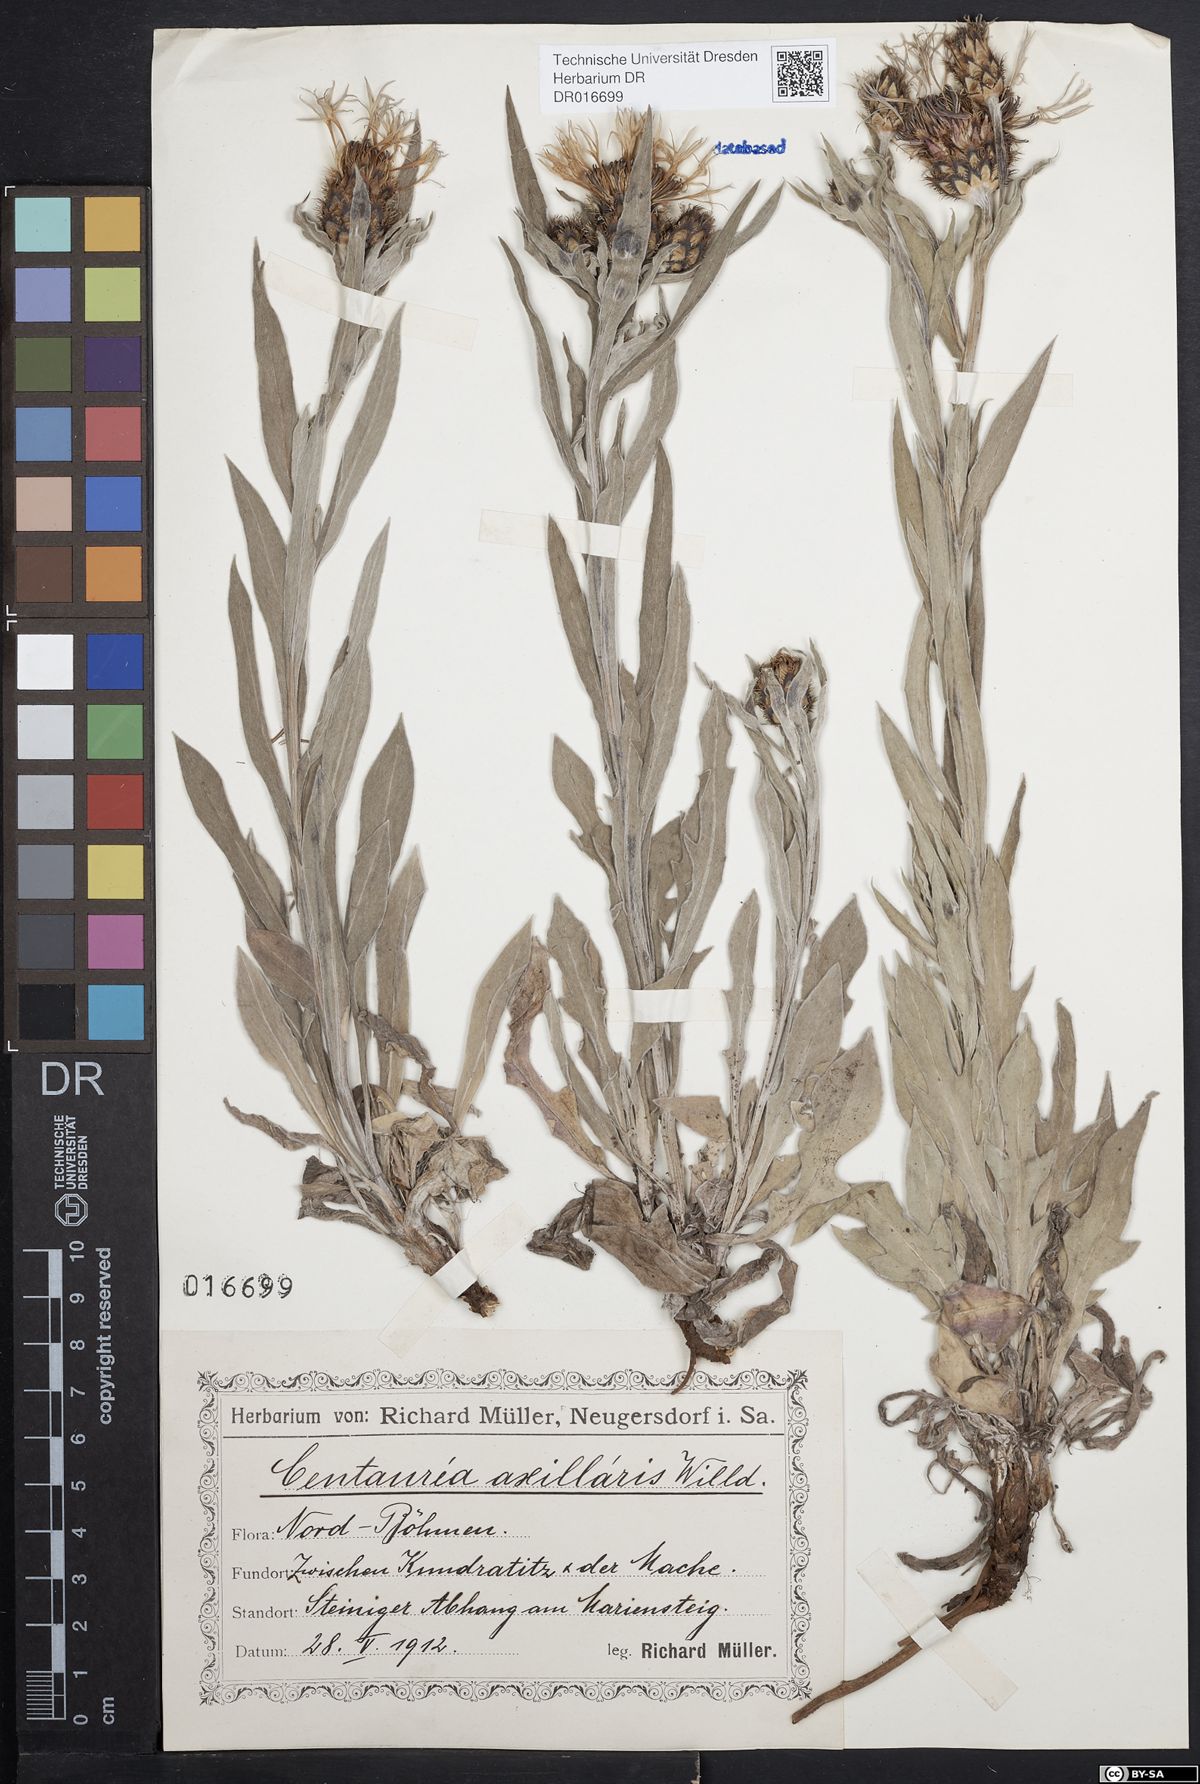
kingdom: Plantae
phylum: Tracheophyta
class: Magnoliopsida
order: Asterales
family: Asteraceae
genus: Centaurea
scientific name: Centaurea triumfettii
